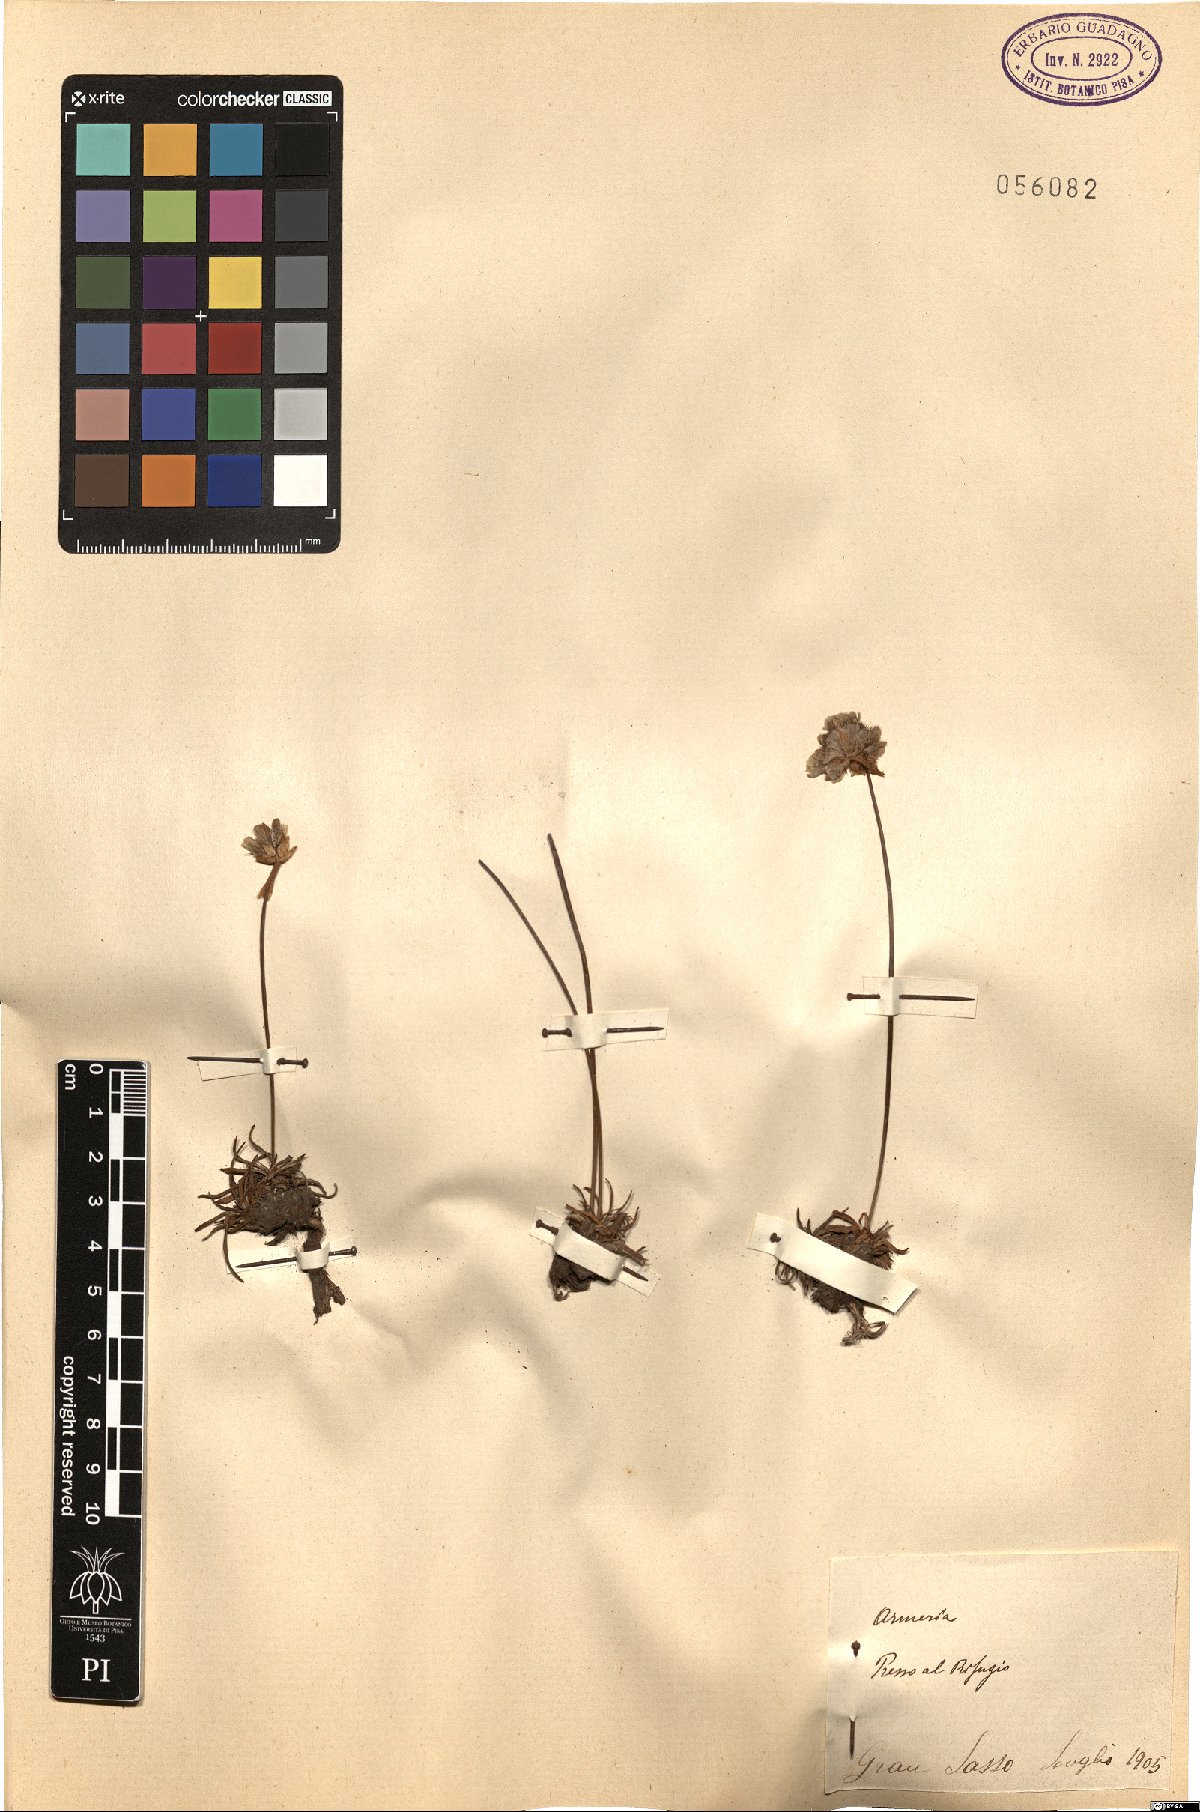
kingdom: Plantae
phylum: Tracheophyta
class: Magnoliopsida
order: Caryophyllales
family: Plumbaginaceae
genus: Armeria
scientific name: Armeria
